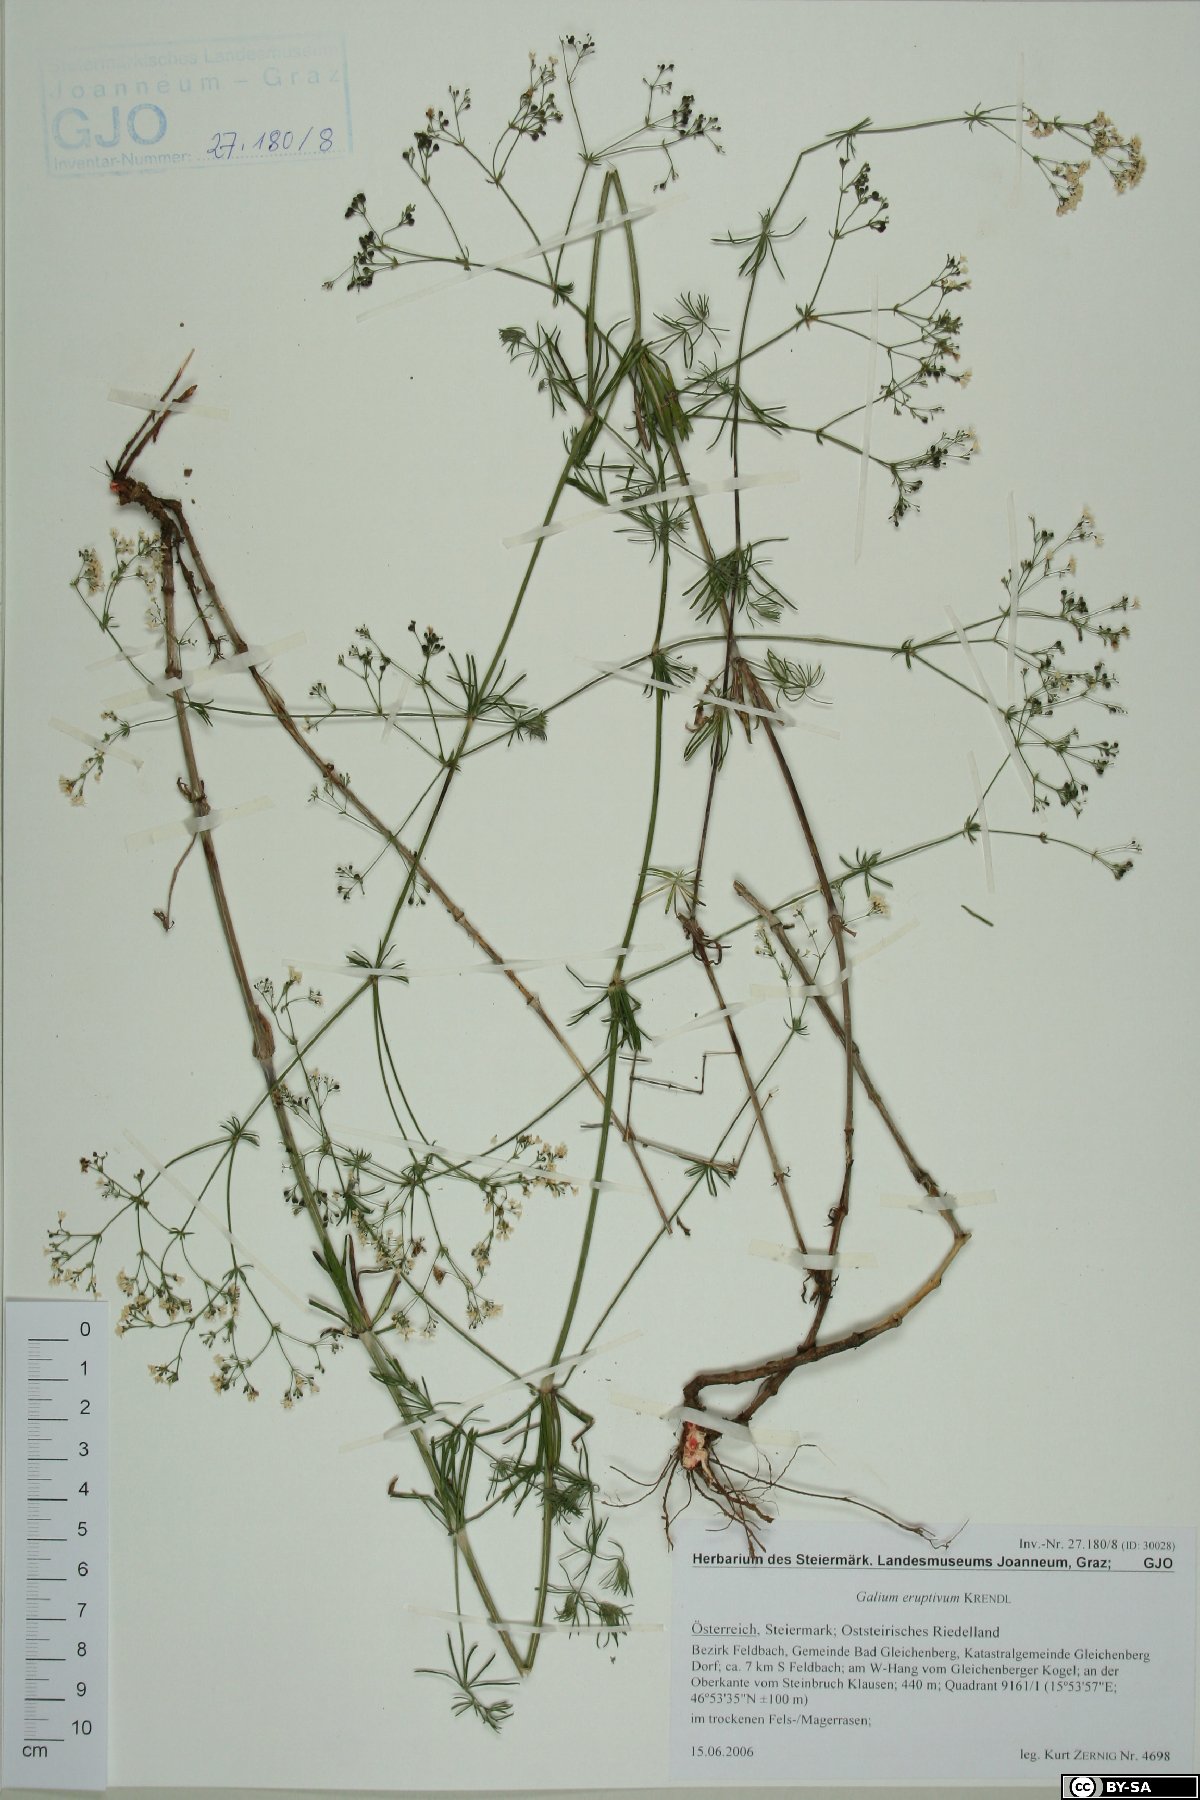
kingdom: Plantae
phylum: Tracheophyta
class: Magnoliopsida
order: Gentianales
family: Rubiaceae
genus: Galium
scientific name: Galium eruptivum
